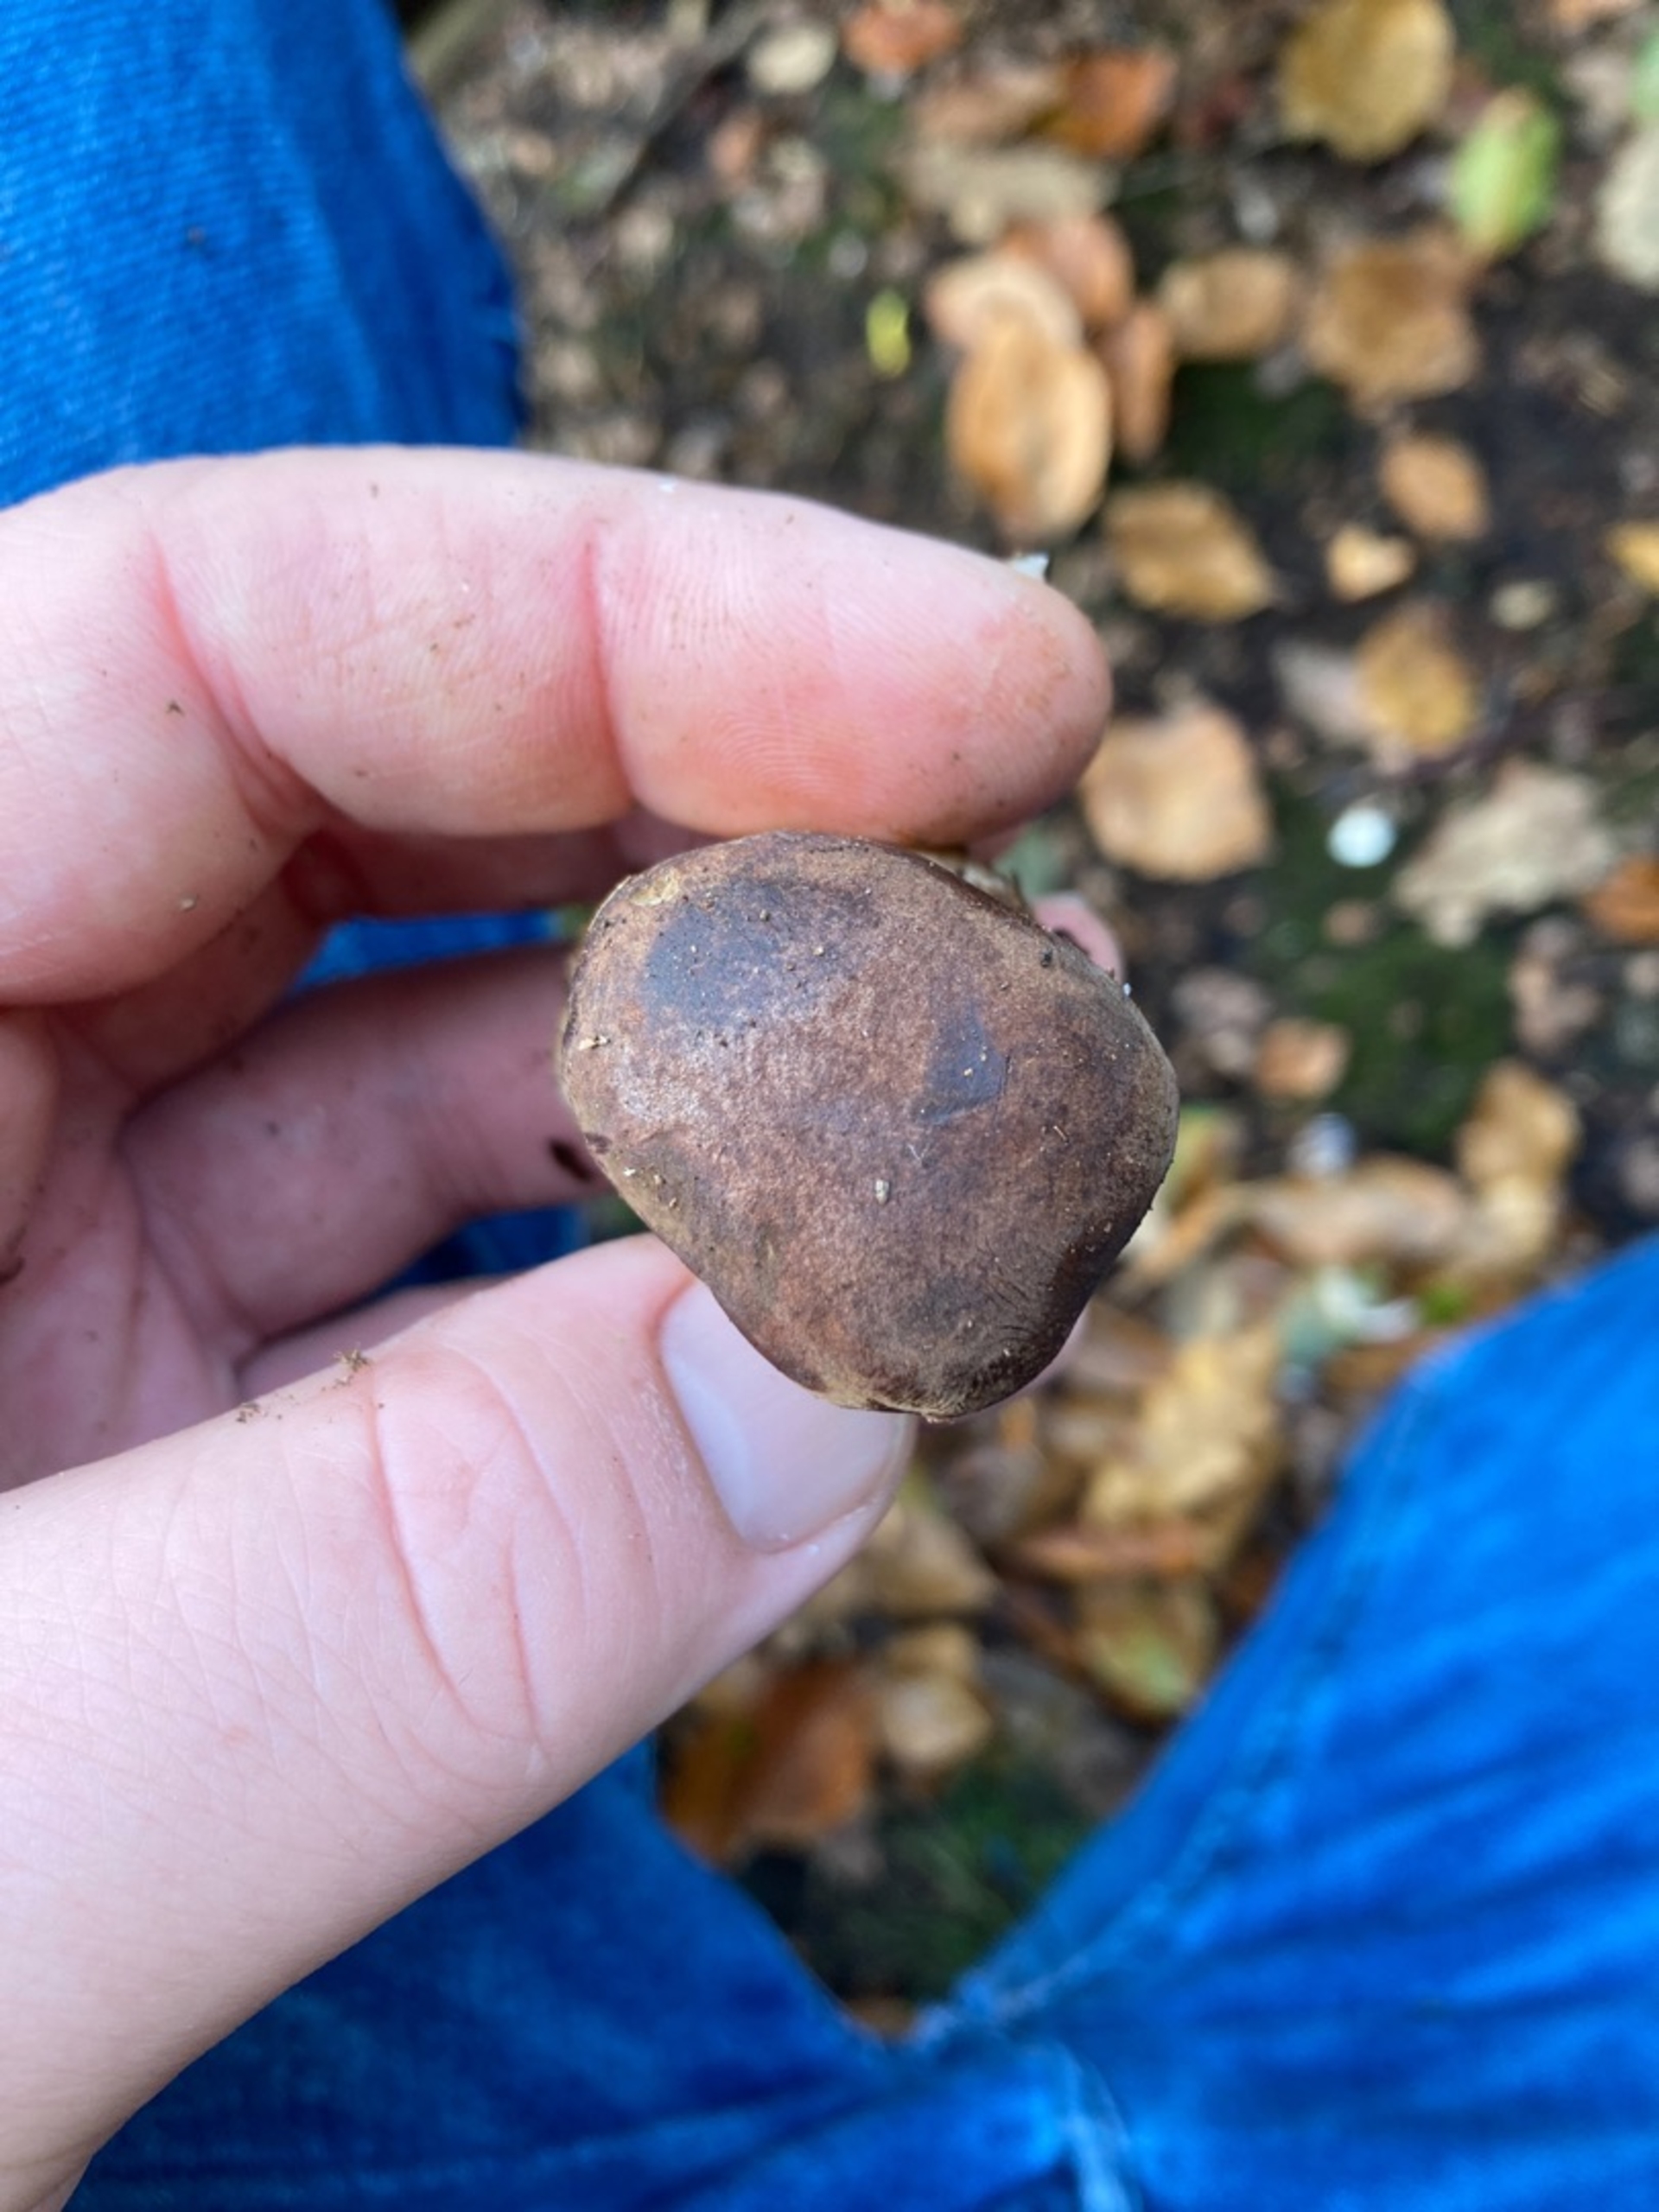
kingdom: Fungi
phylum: Basidiomycota
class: Agaricomycetes
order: Boletales
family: Boletaceae
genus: Imleria
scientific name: Imleria badia
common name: Brunstokket rørhat
